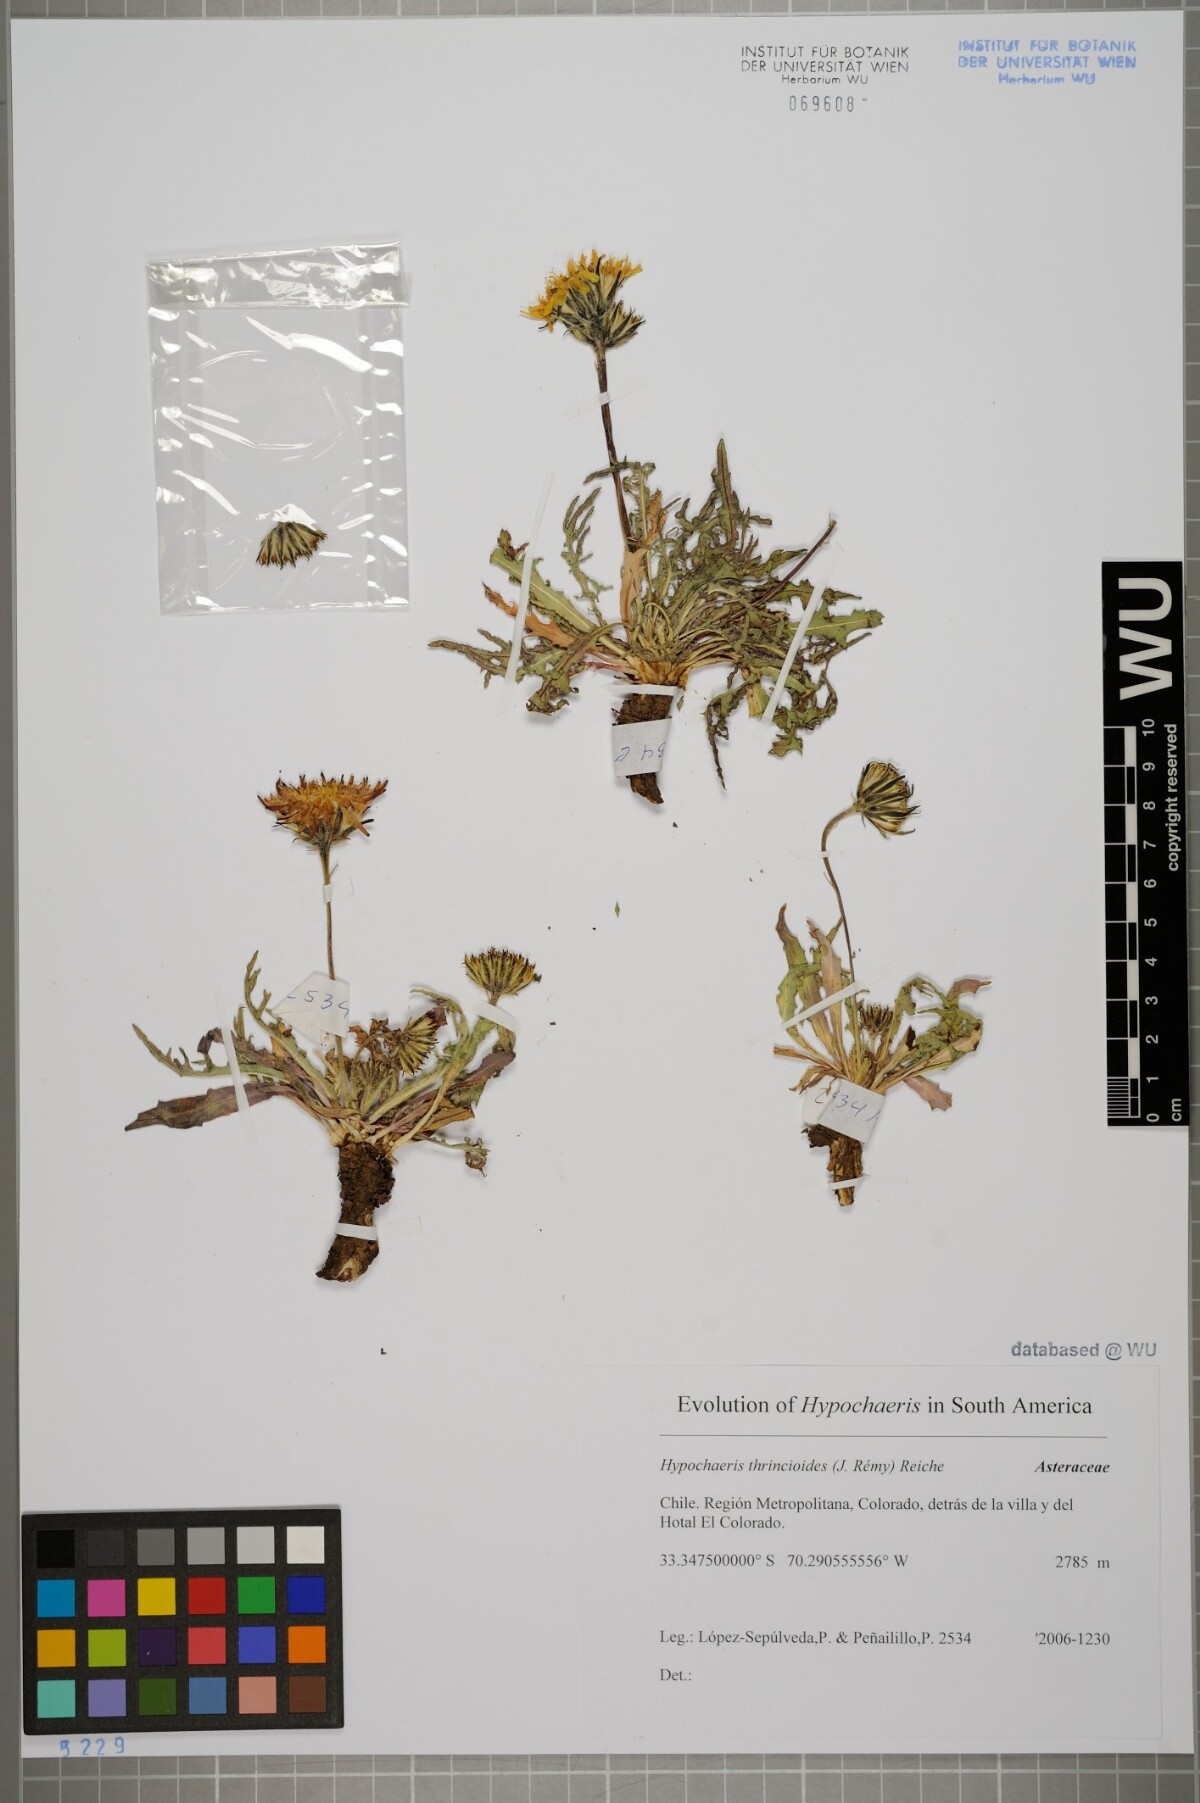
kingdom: Plantae
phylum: Tracheophyta
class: Magnoliopsida
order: Asterales
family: Asteraceae
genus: Hypochaeris
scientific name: Hypochaeris apargioides
